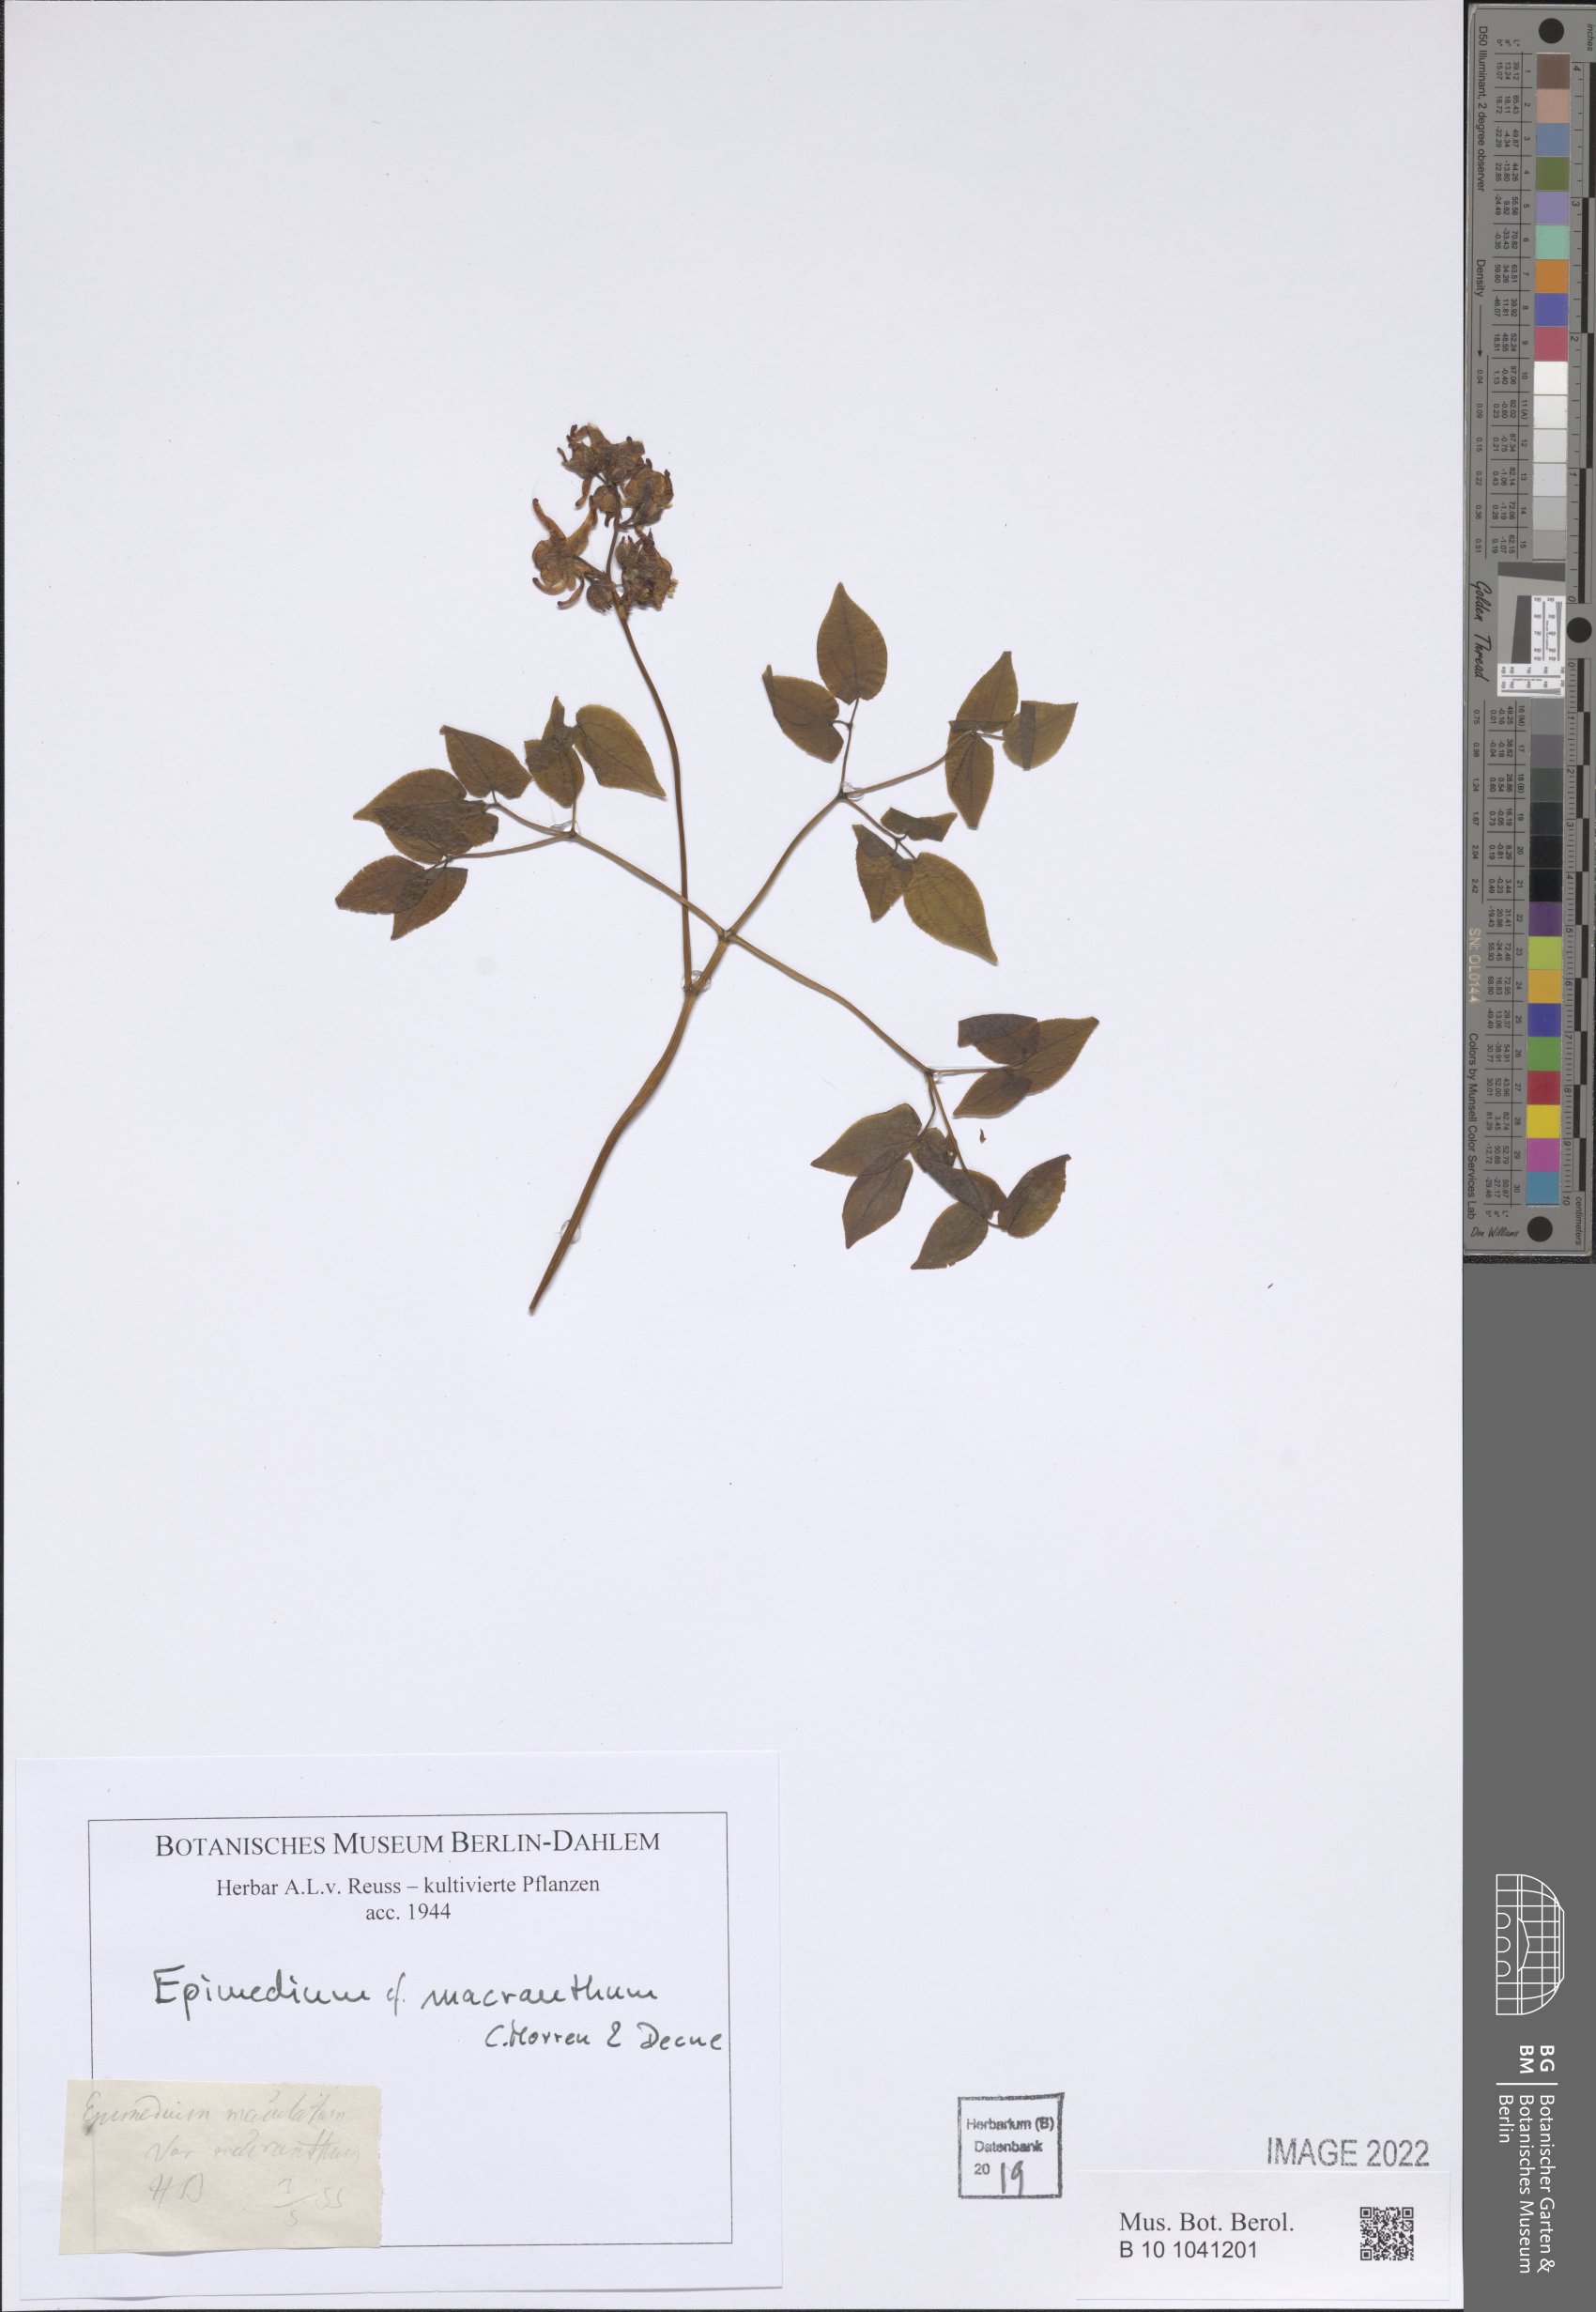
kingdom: Plantae
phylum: Tracheophyta
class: Magnoliopsida
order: Ranunculales
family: Berberidaceae
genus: Epimedium
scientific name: Epimedium grandiflorum
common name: Barrenwort
